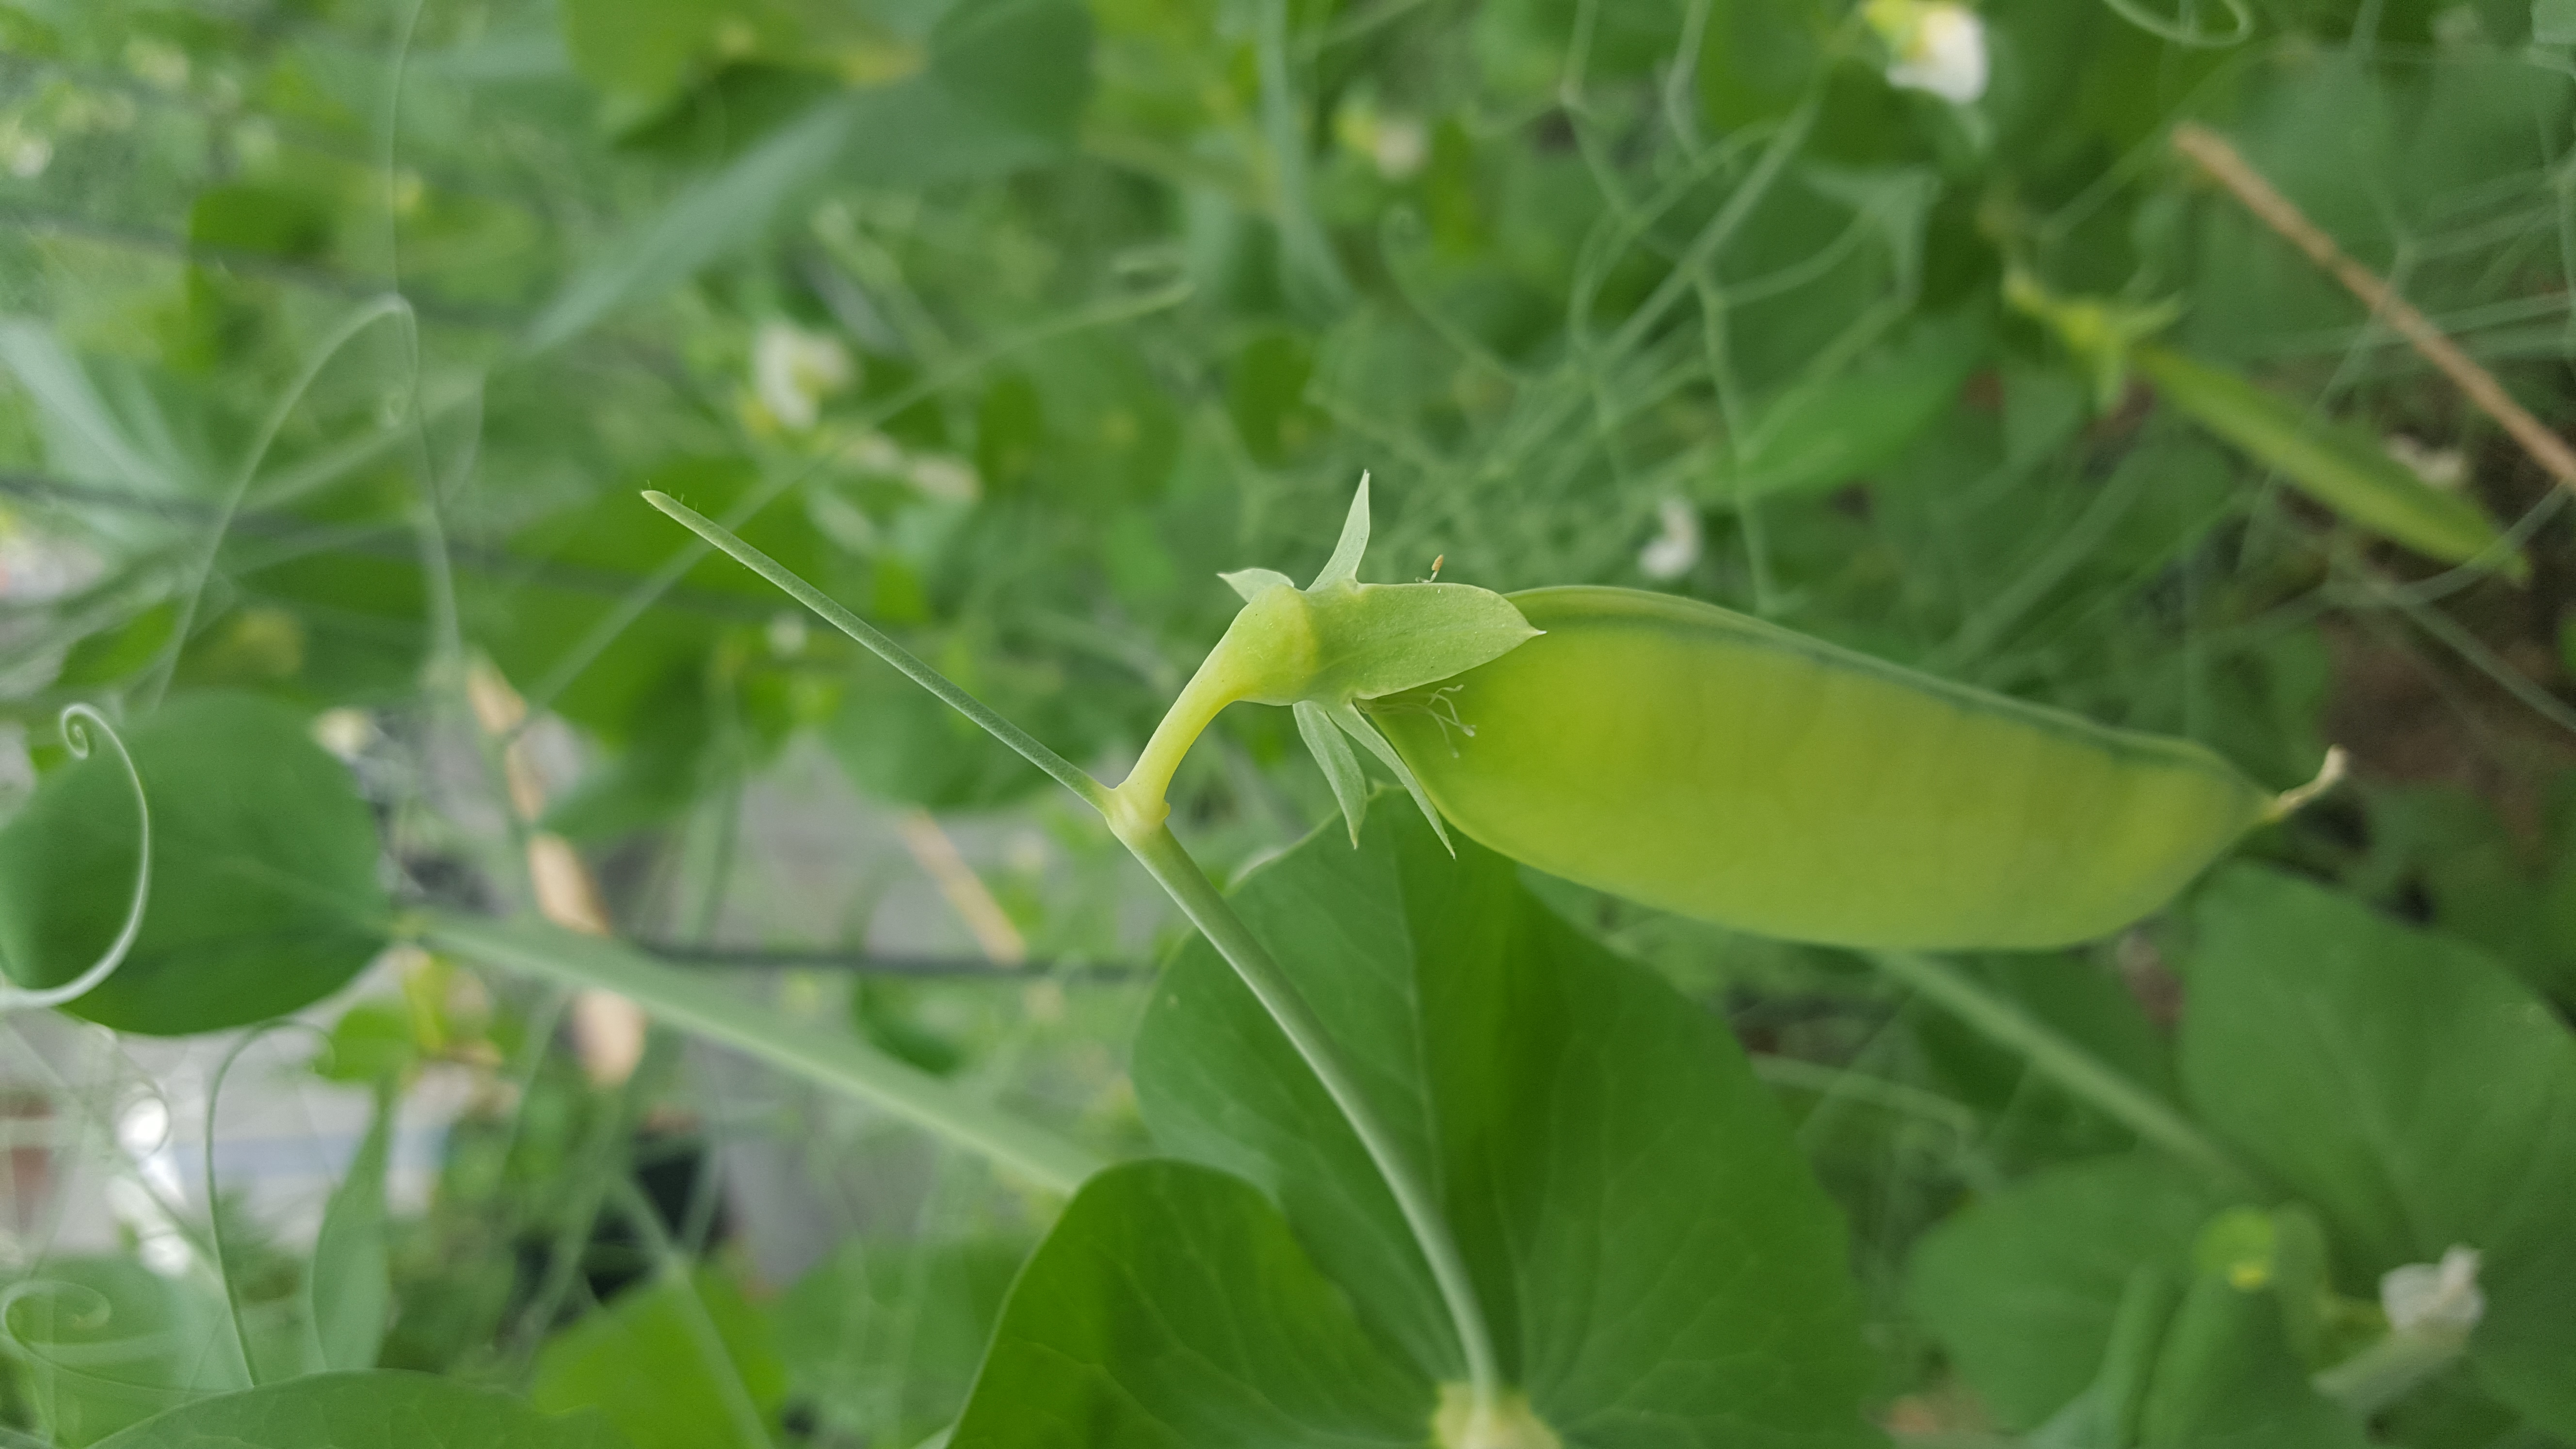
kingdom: Plantae
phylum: Tracheophyta
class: Magnoliopsida
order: Fabales
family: Fabaceae
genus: Lathyrus
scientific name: Lathyrus oleraceus
